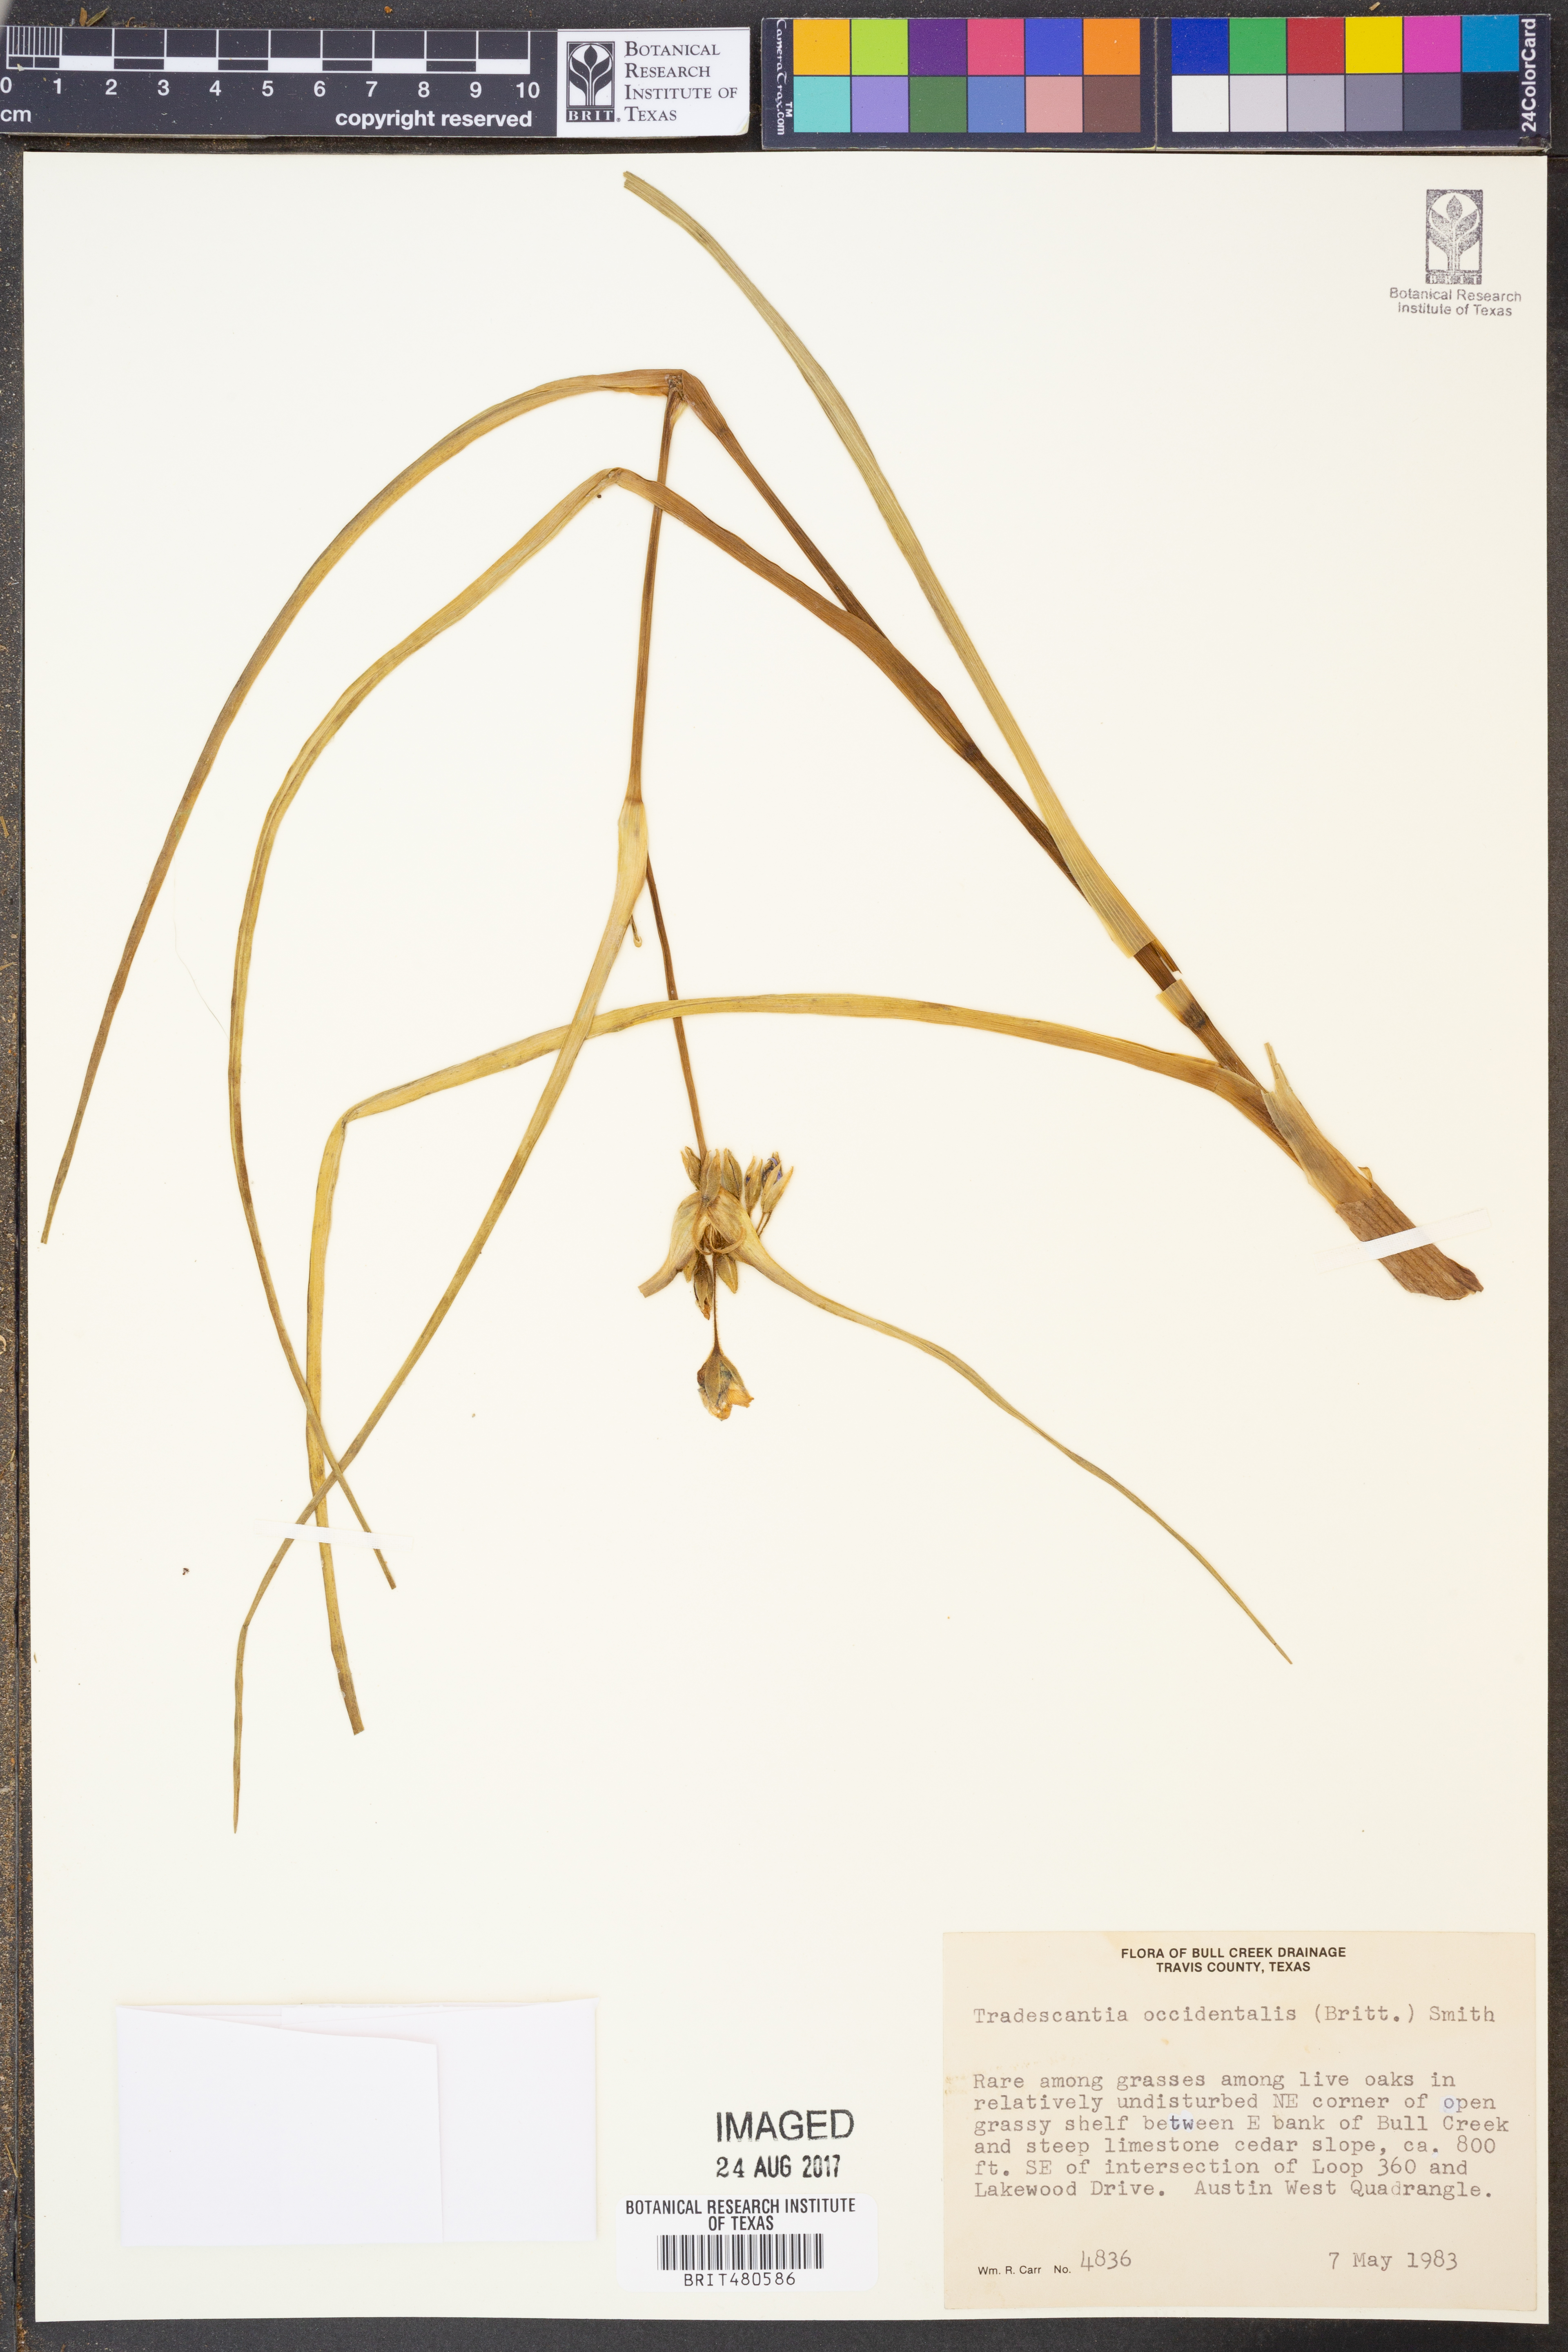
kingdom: Plantae
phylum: Tracheophyta
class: Liliopsida
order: Commelinales
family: Commelinaceae
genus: Tradescantia
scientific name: Tradescantia occidentalis
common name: Prairie spiderwort
